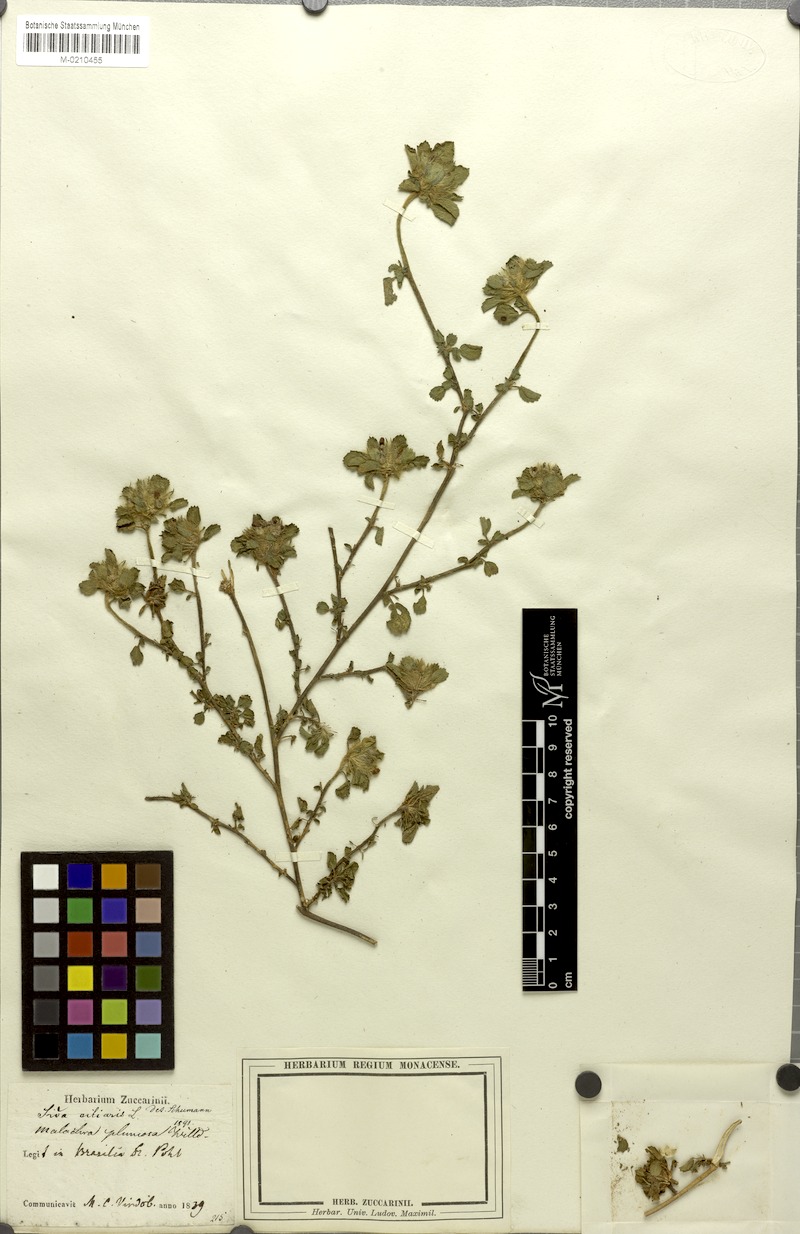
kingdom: Plantae
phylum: Tracheophyta
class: Magnoliopsida
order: Malvales
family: Malvaceae
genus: Sida
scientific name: Sida ciliaris
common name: Bracted fanpetals
